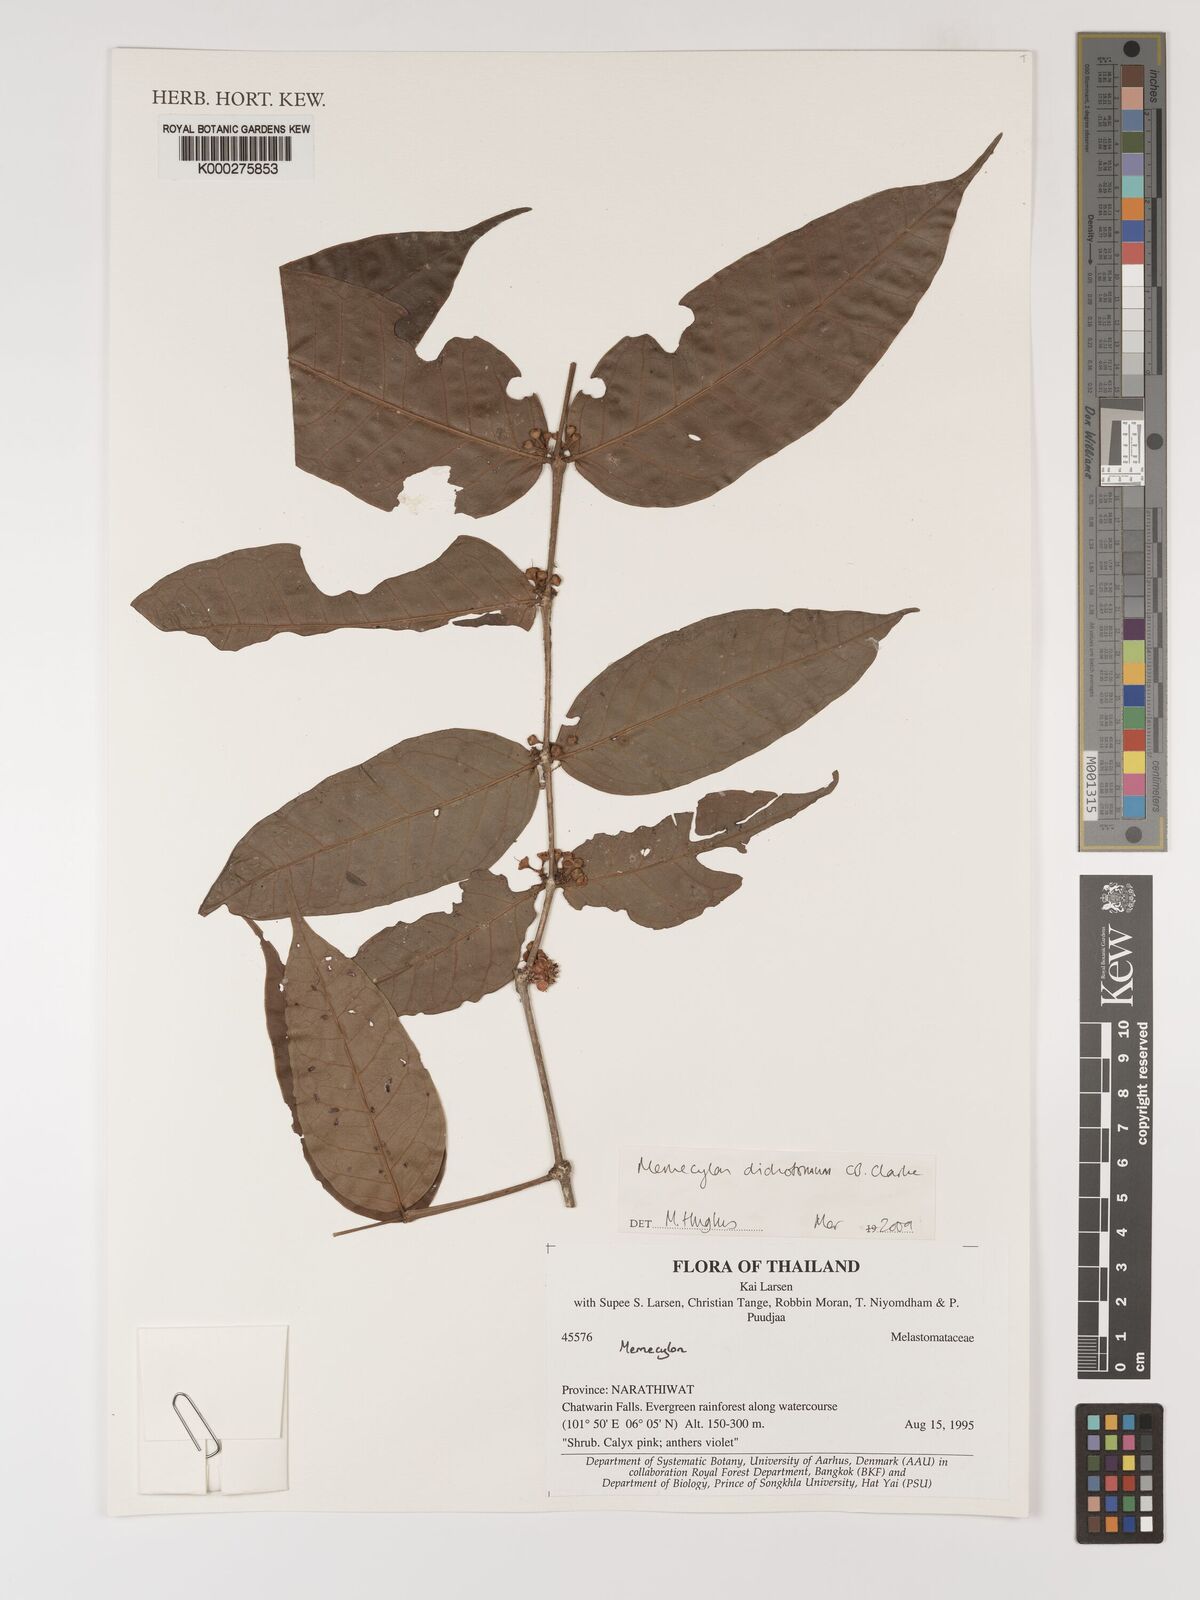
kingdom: Plantae
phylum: Tracheophyta
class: Magnoliopsida
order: Myrtales
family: Melastomataceae
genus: Memecylon
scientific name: Memecylon
